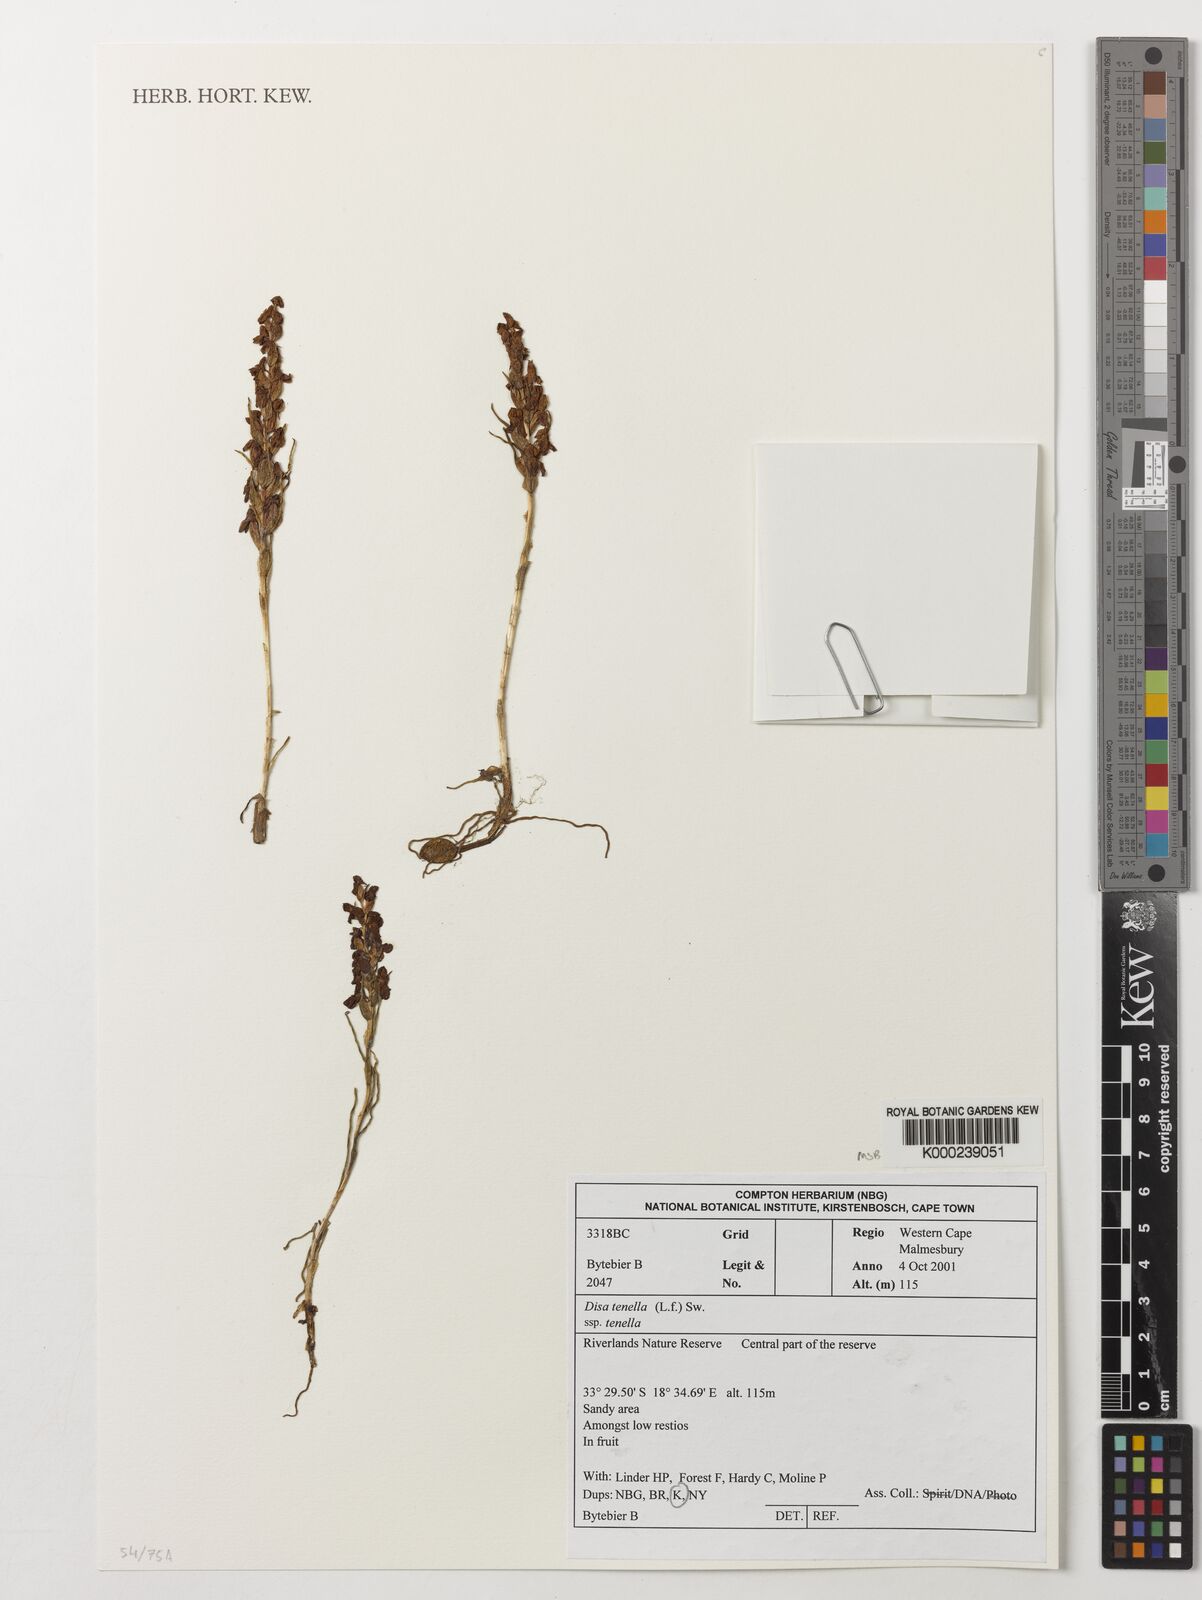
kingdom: Plantae
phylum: Tracheophyta
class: Liliopsida
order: Asparagales
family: Orchidaceae
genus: Disa
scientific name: Disa tenella
